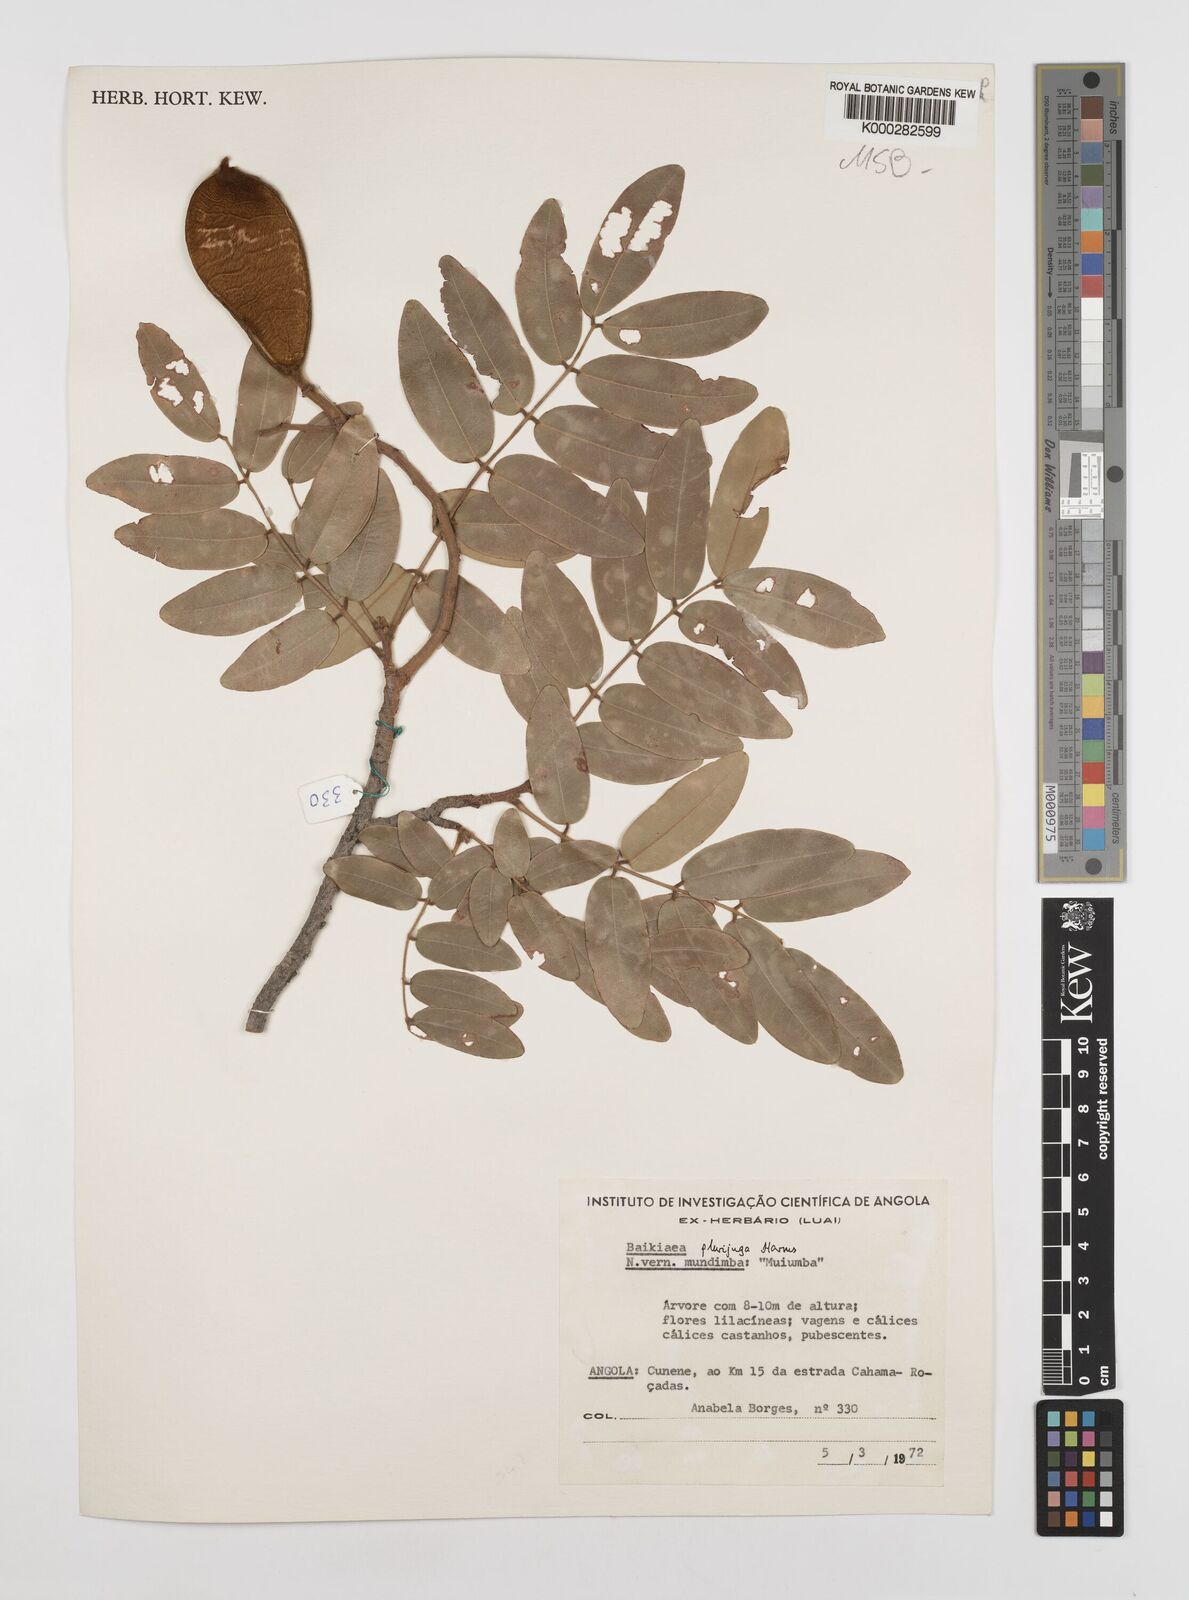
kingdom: Plantae
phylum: Tracheophyta
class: Magnoliopsida
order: Fabales
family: Fabaceae
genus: Baikiaea
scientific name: Baikiaea plurijuga
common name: Rhodesian-teak
